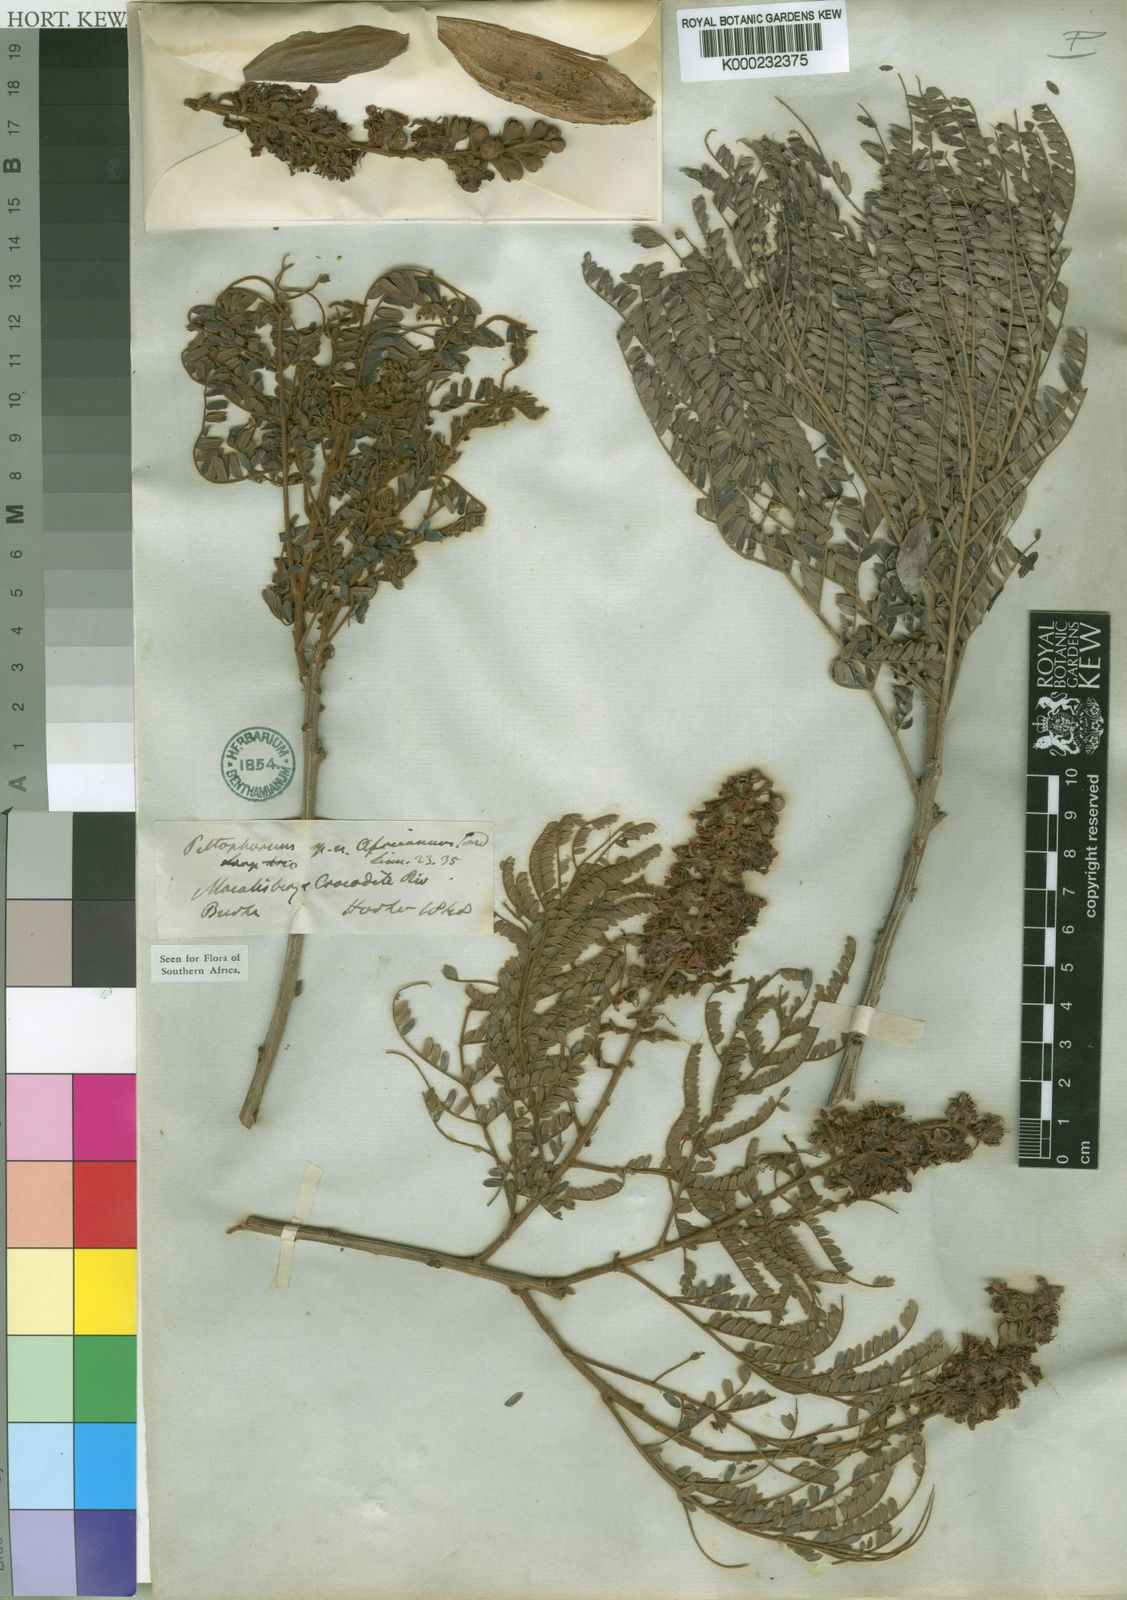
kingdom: Plantae
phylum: Tracheophyta
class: Magnoliopsida
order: Fabales
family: Fabaceae
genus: Peltophorum
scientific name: Peltophorum africanum
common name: African black wattle
